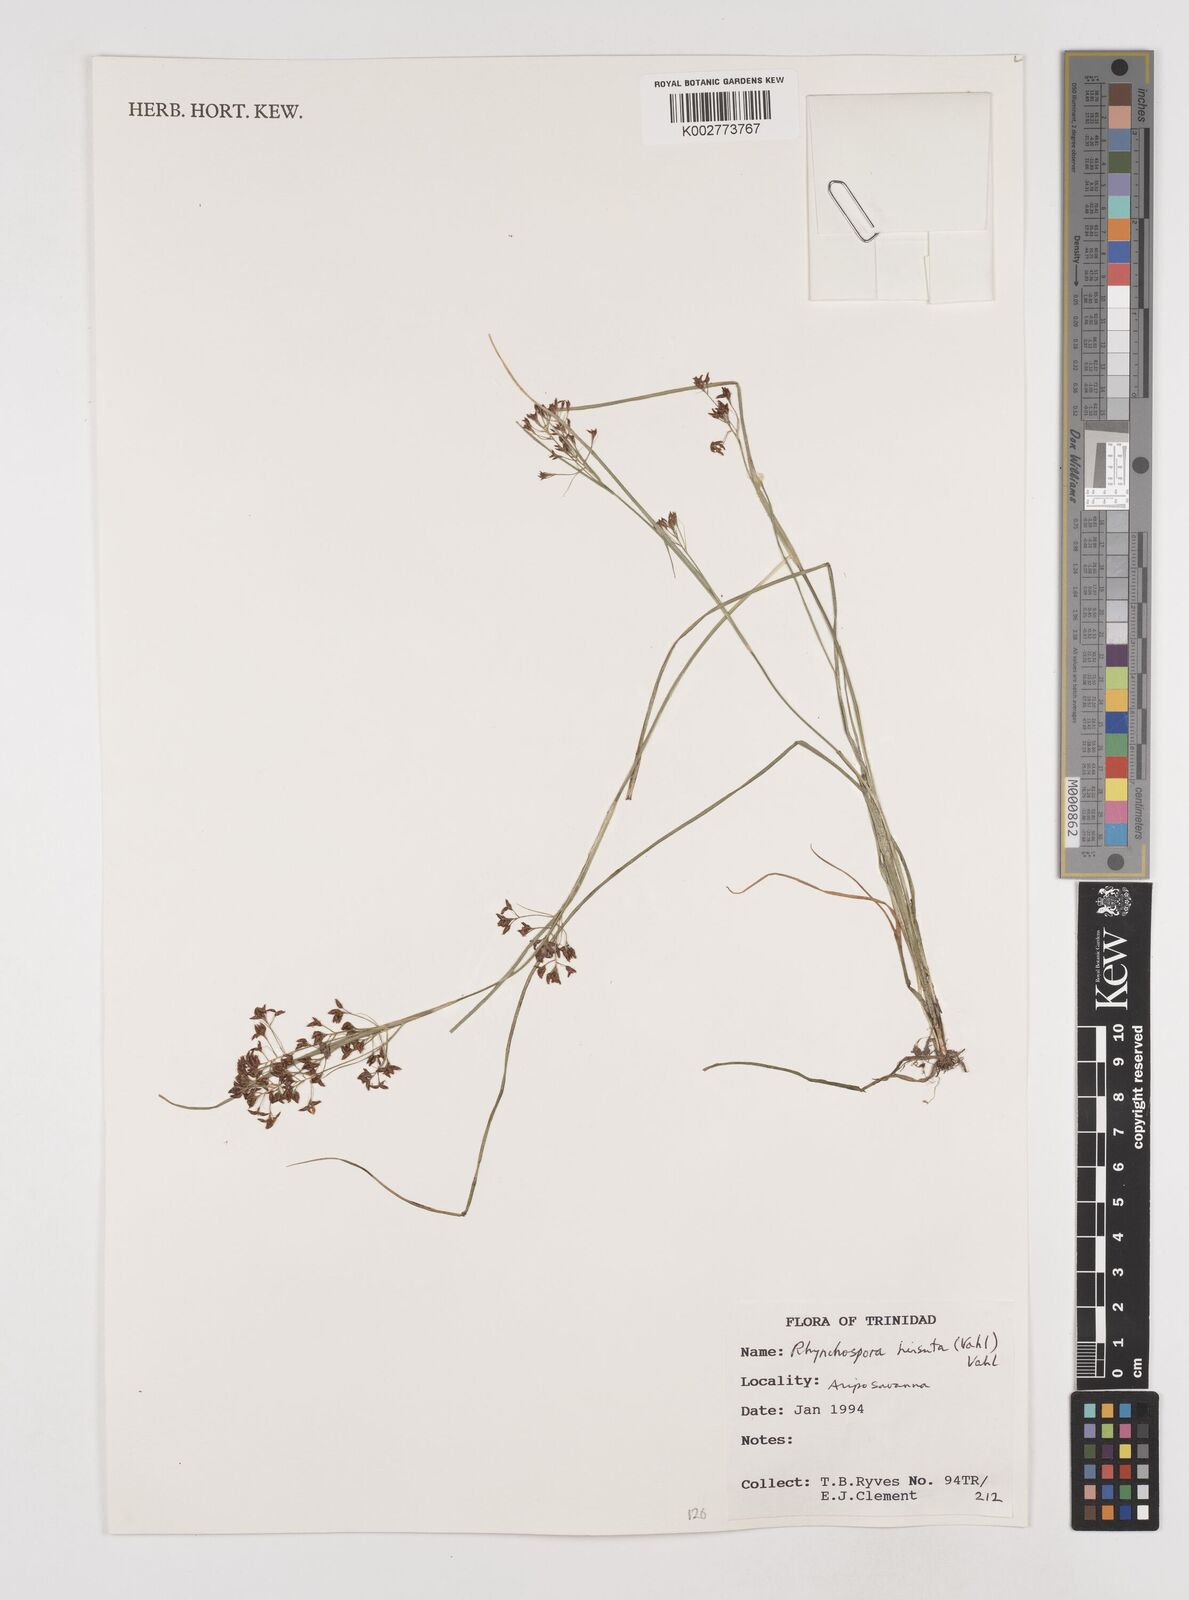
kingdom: Plantae
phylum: Tracheophyta
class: Liliopsida
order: Poales
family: Cyperaceae
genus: Rhynchospora
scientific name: Rhynchospora hirsuta
